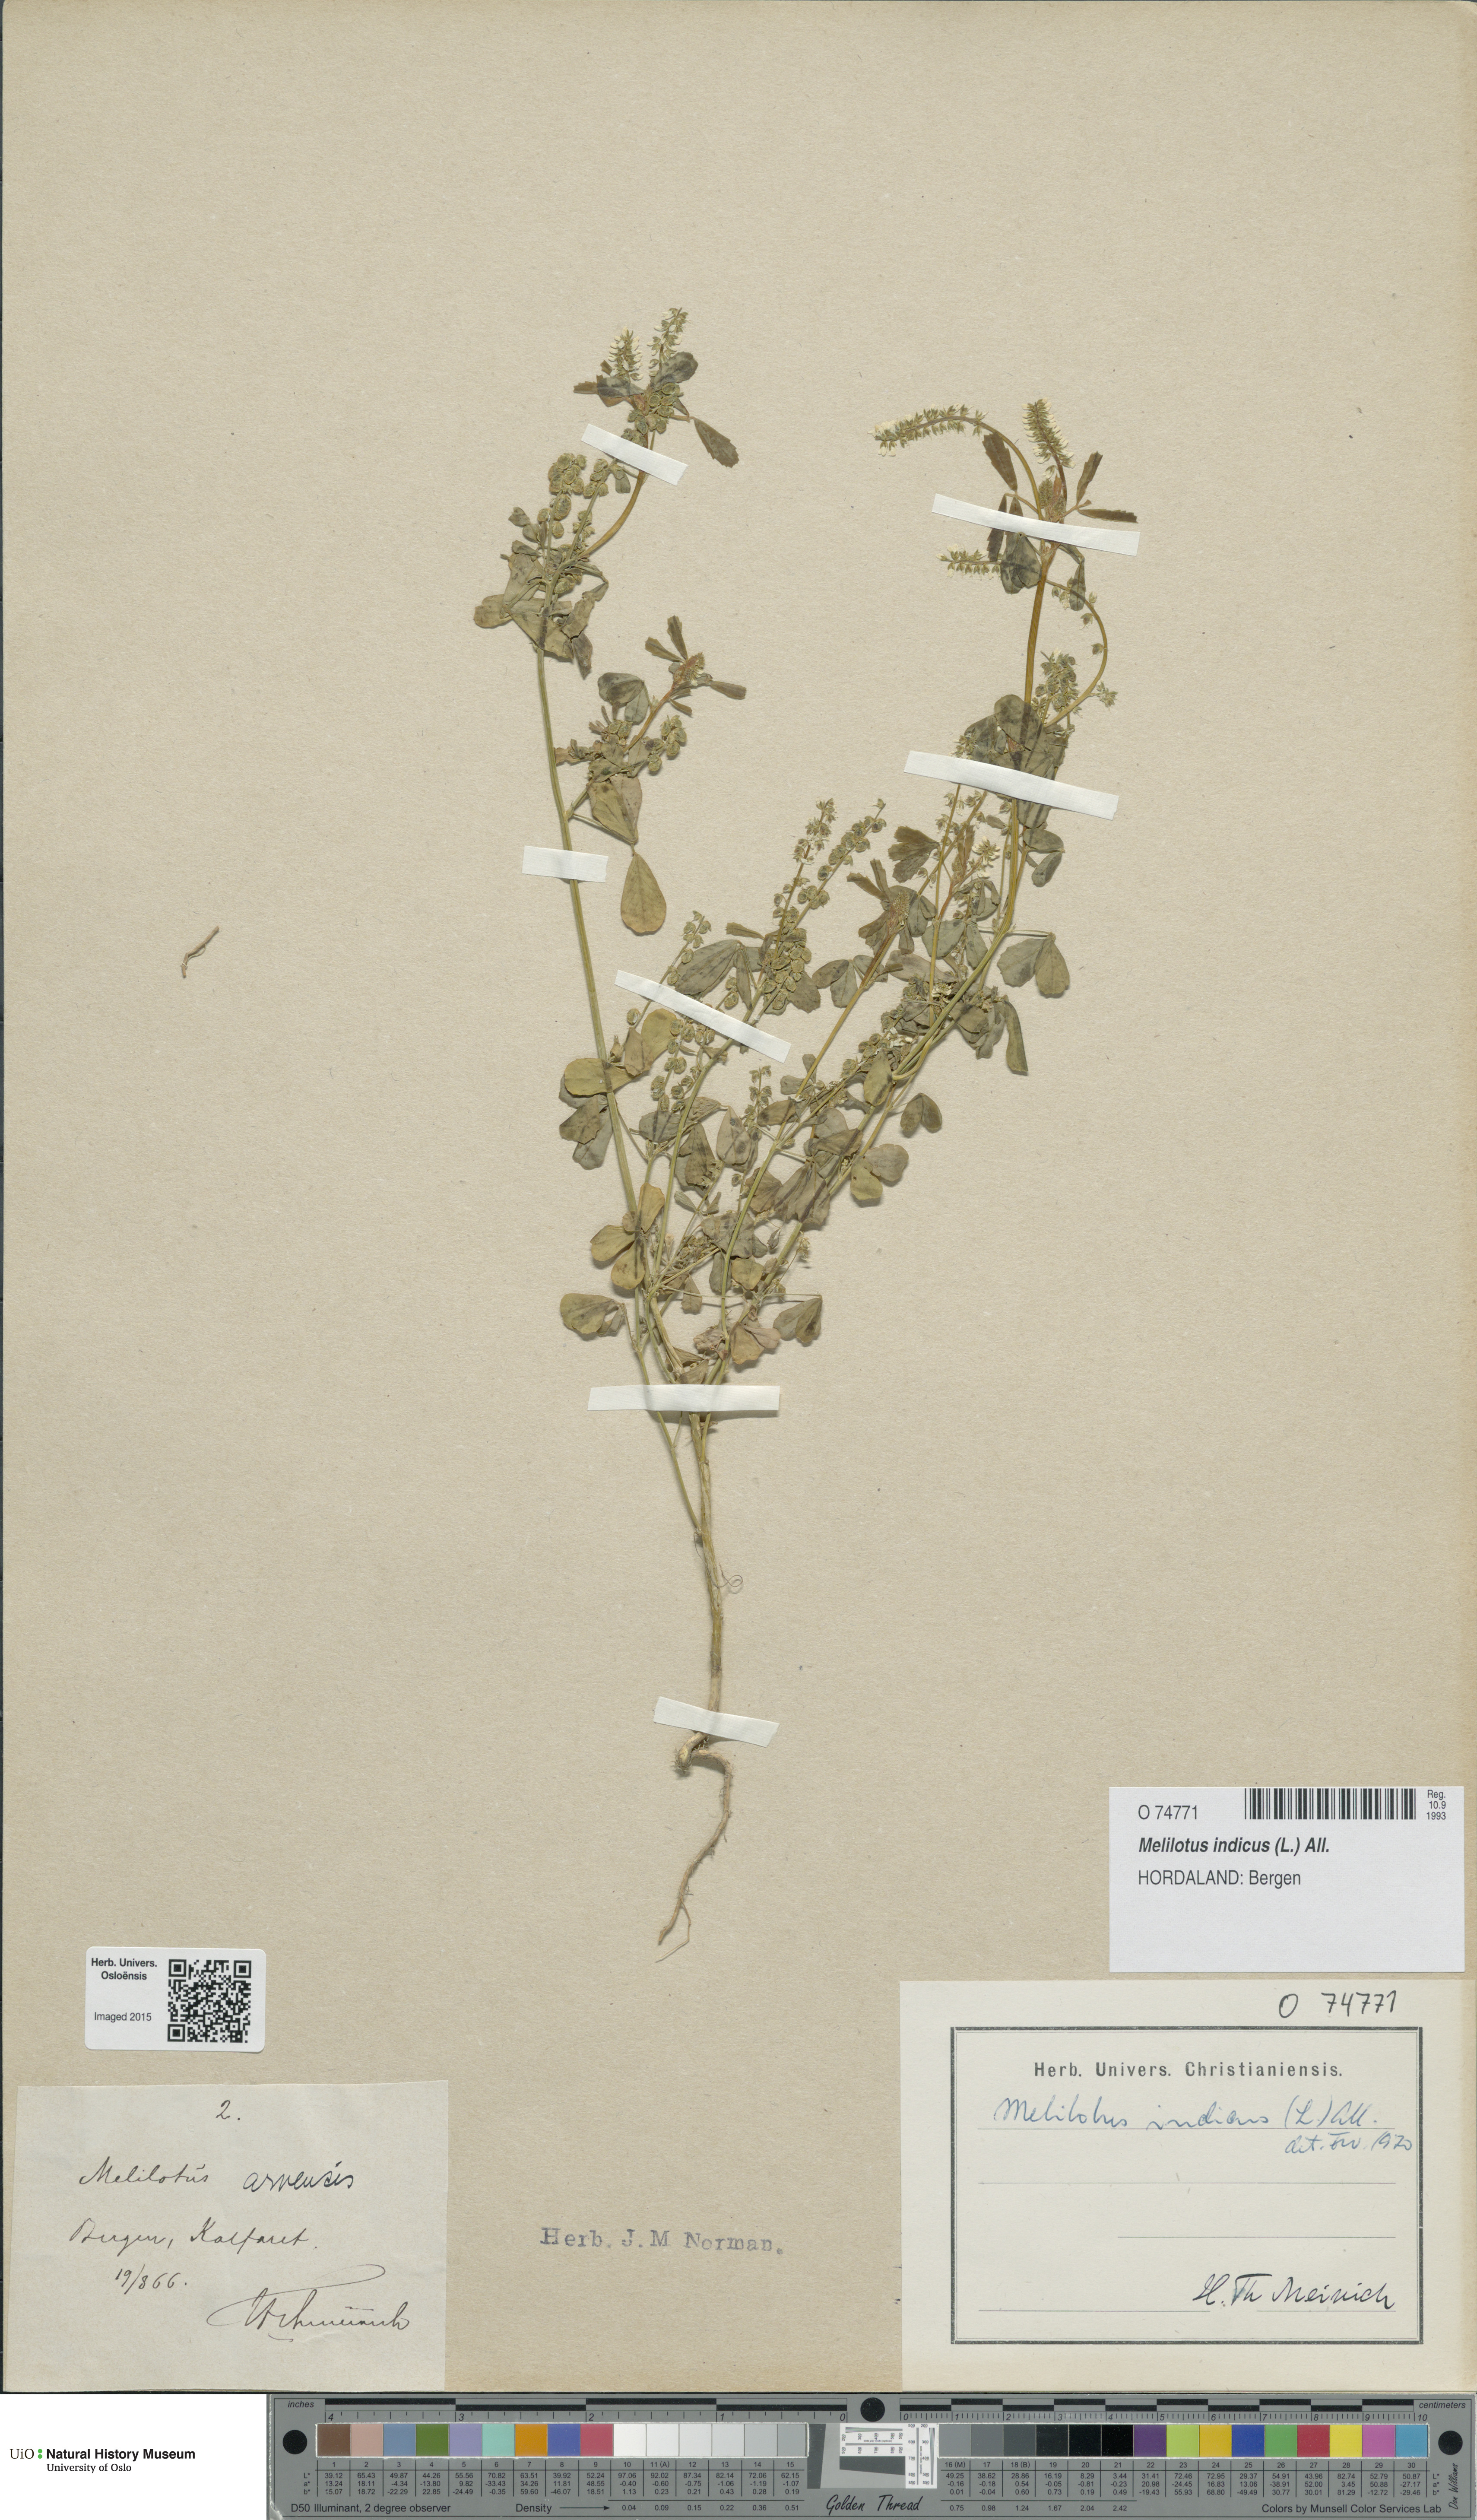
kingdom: Plantae
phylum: Tracheophyta
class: Magnoliopsida
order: Fabales
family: Fabaceae
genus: Melilotus
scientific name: Melilotus indicus
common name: Small melilot
